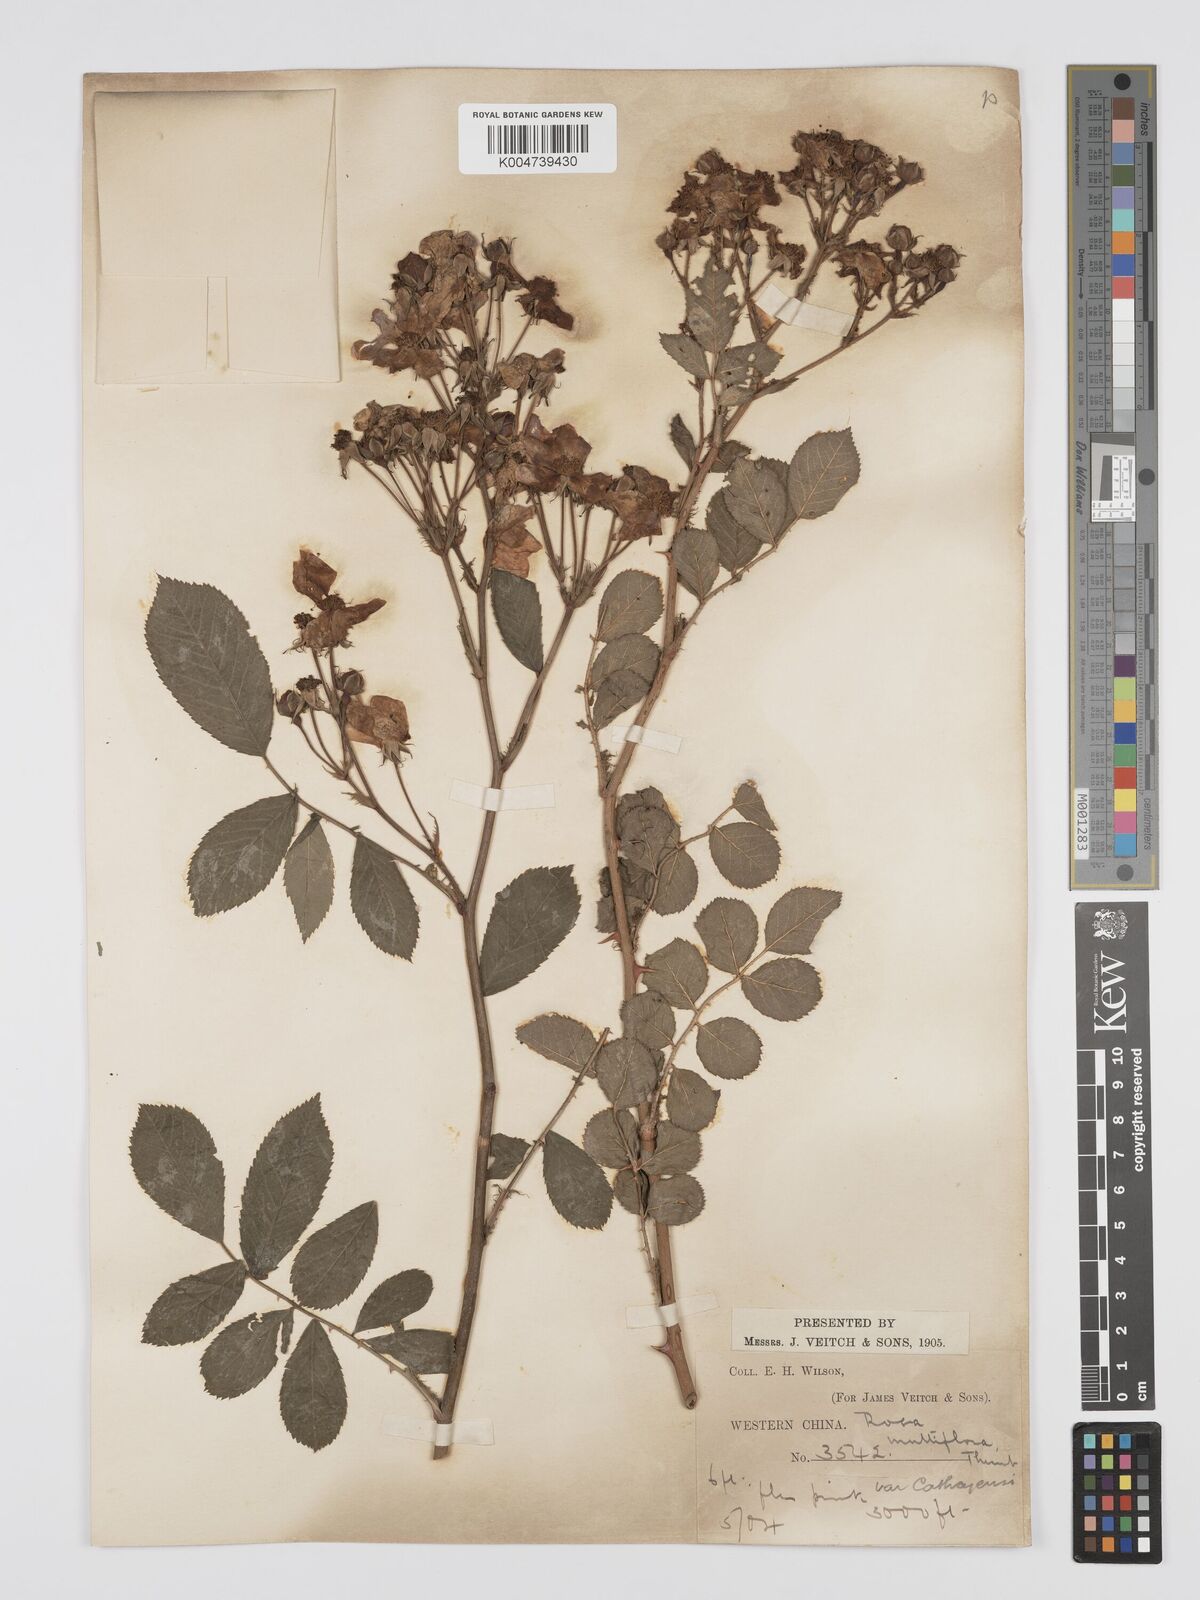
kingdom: Plantae
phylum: Tracheophyta
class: Magnoliopsida
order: Rosales
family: Rosaceae
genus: Rosa
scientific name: Rosa multiflora
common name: Multiflora rose
